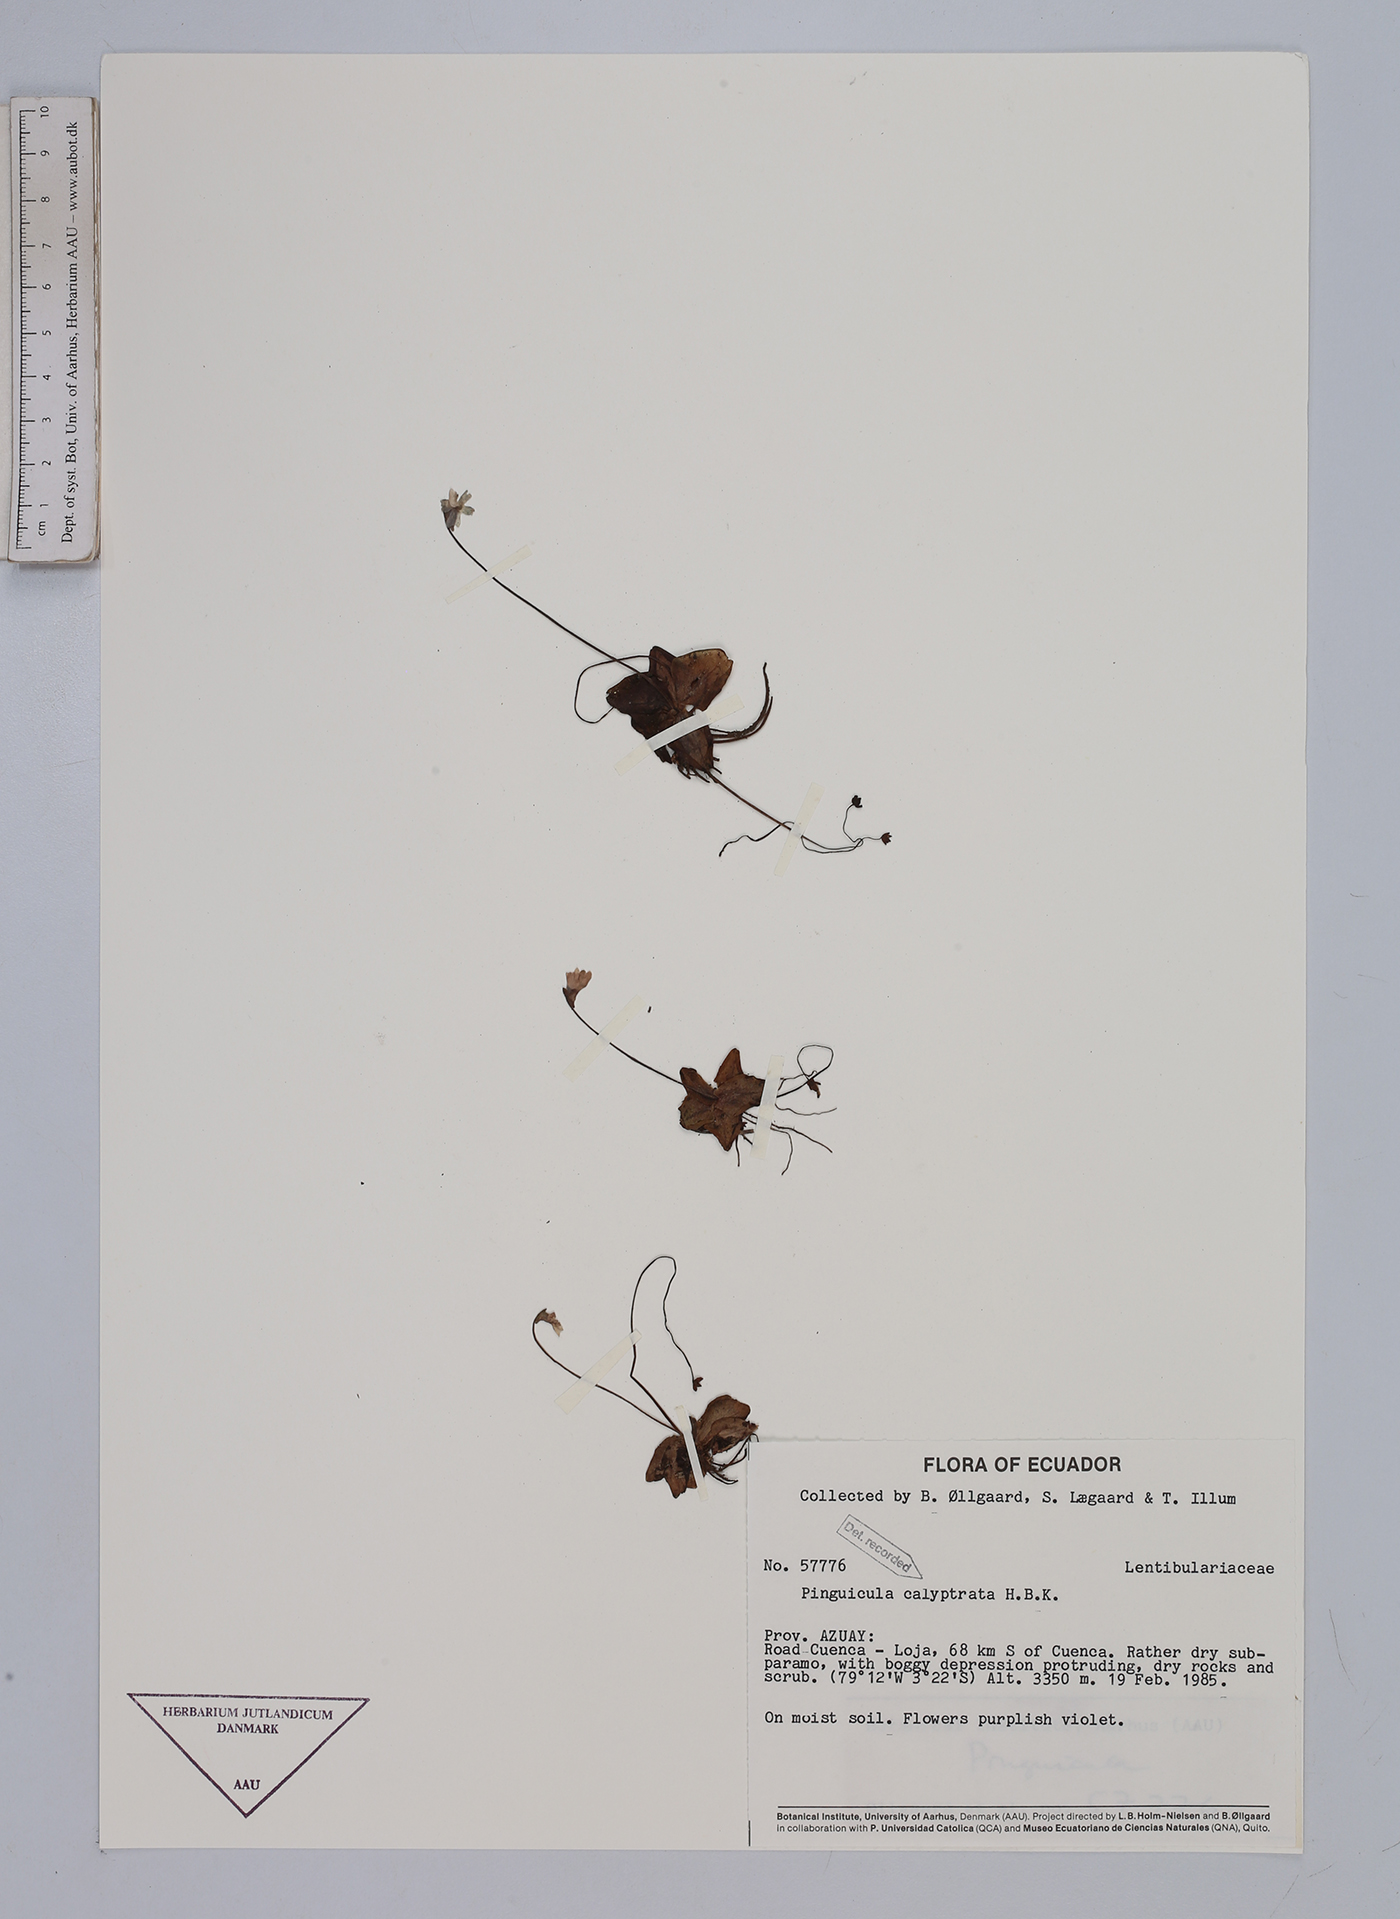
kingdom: Plantae
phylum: Tracheophyta
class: Magnoliopsida
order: Lamiales
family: Lentibulariaceae
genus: Pinguicula
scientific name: Pinguicula calyptrata
